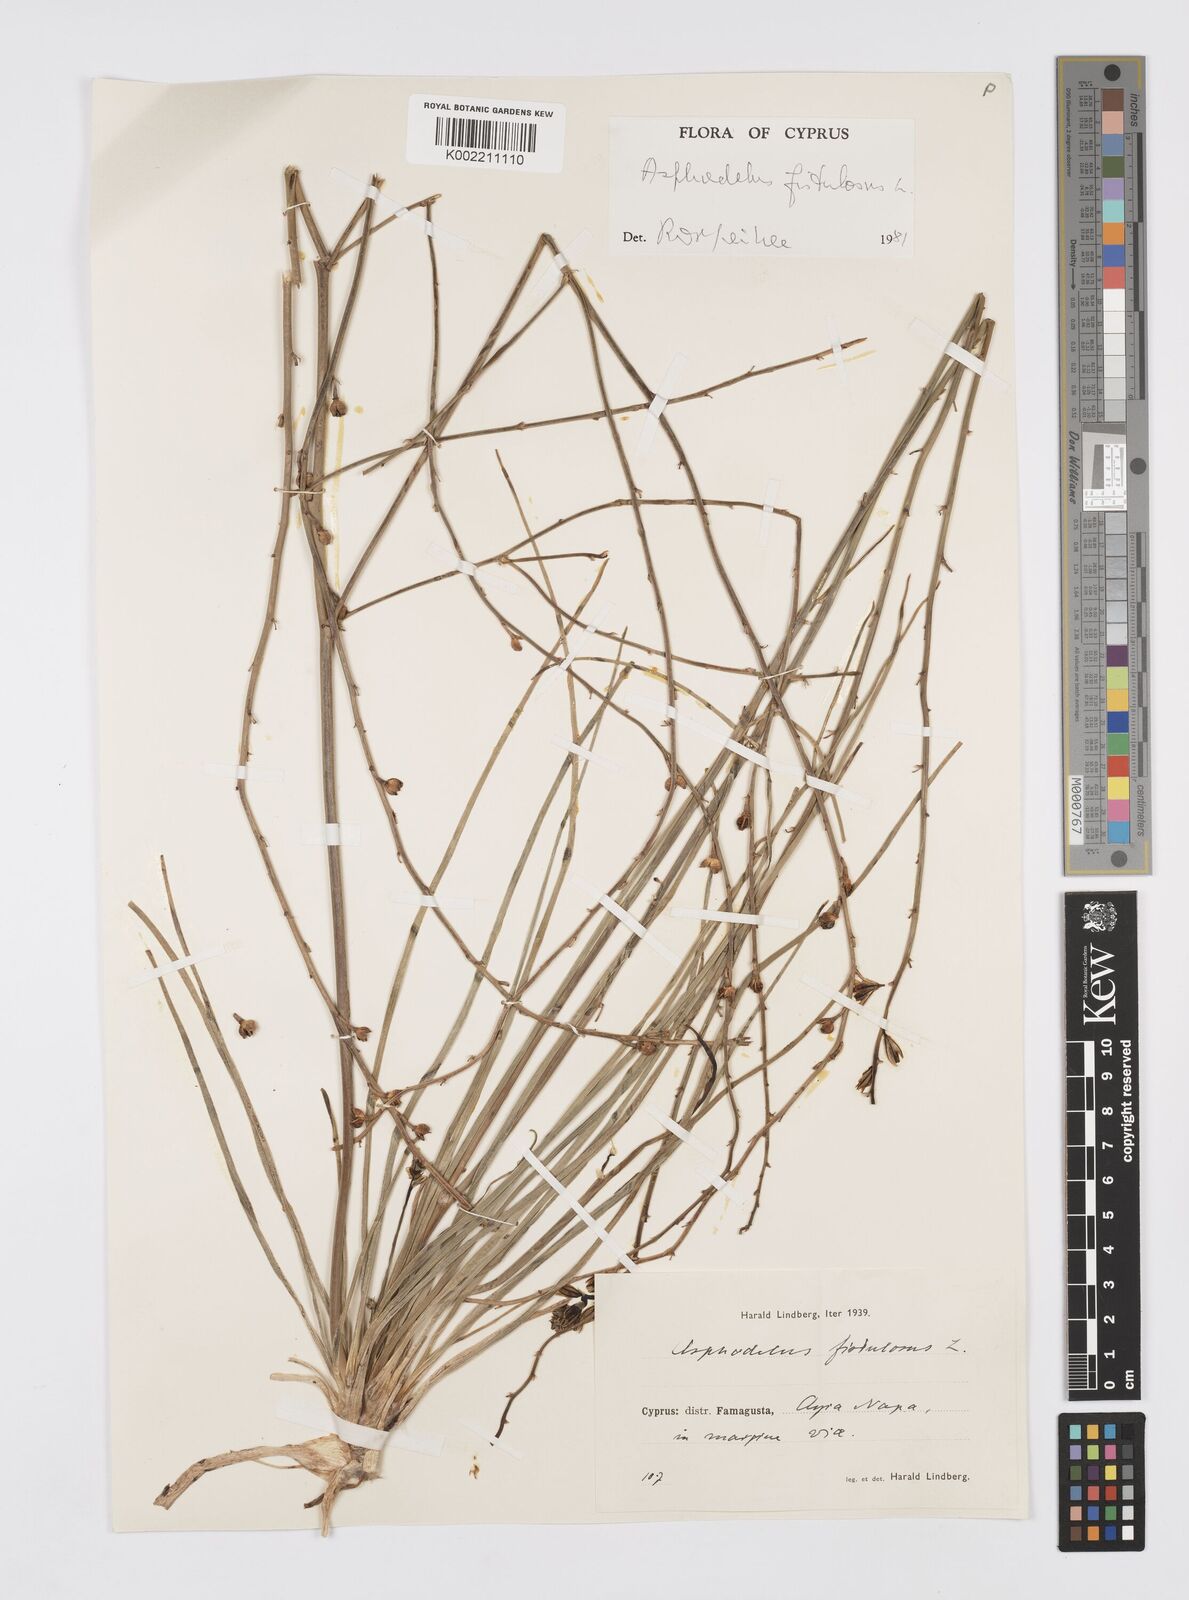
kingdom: Plantae
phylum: Tracheophyta
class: Liliopsida
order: Asparagales
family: Asphodelaceae
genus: Asphodelus
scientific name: Asphodelus fistulosus
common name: Onionweed
